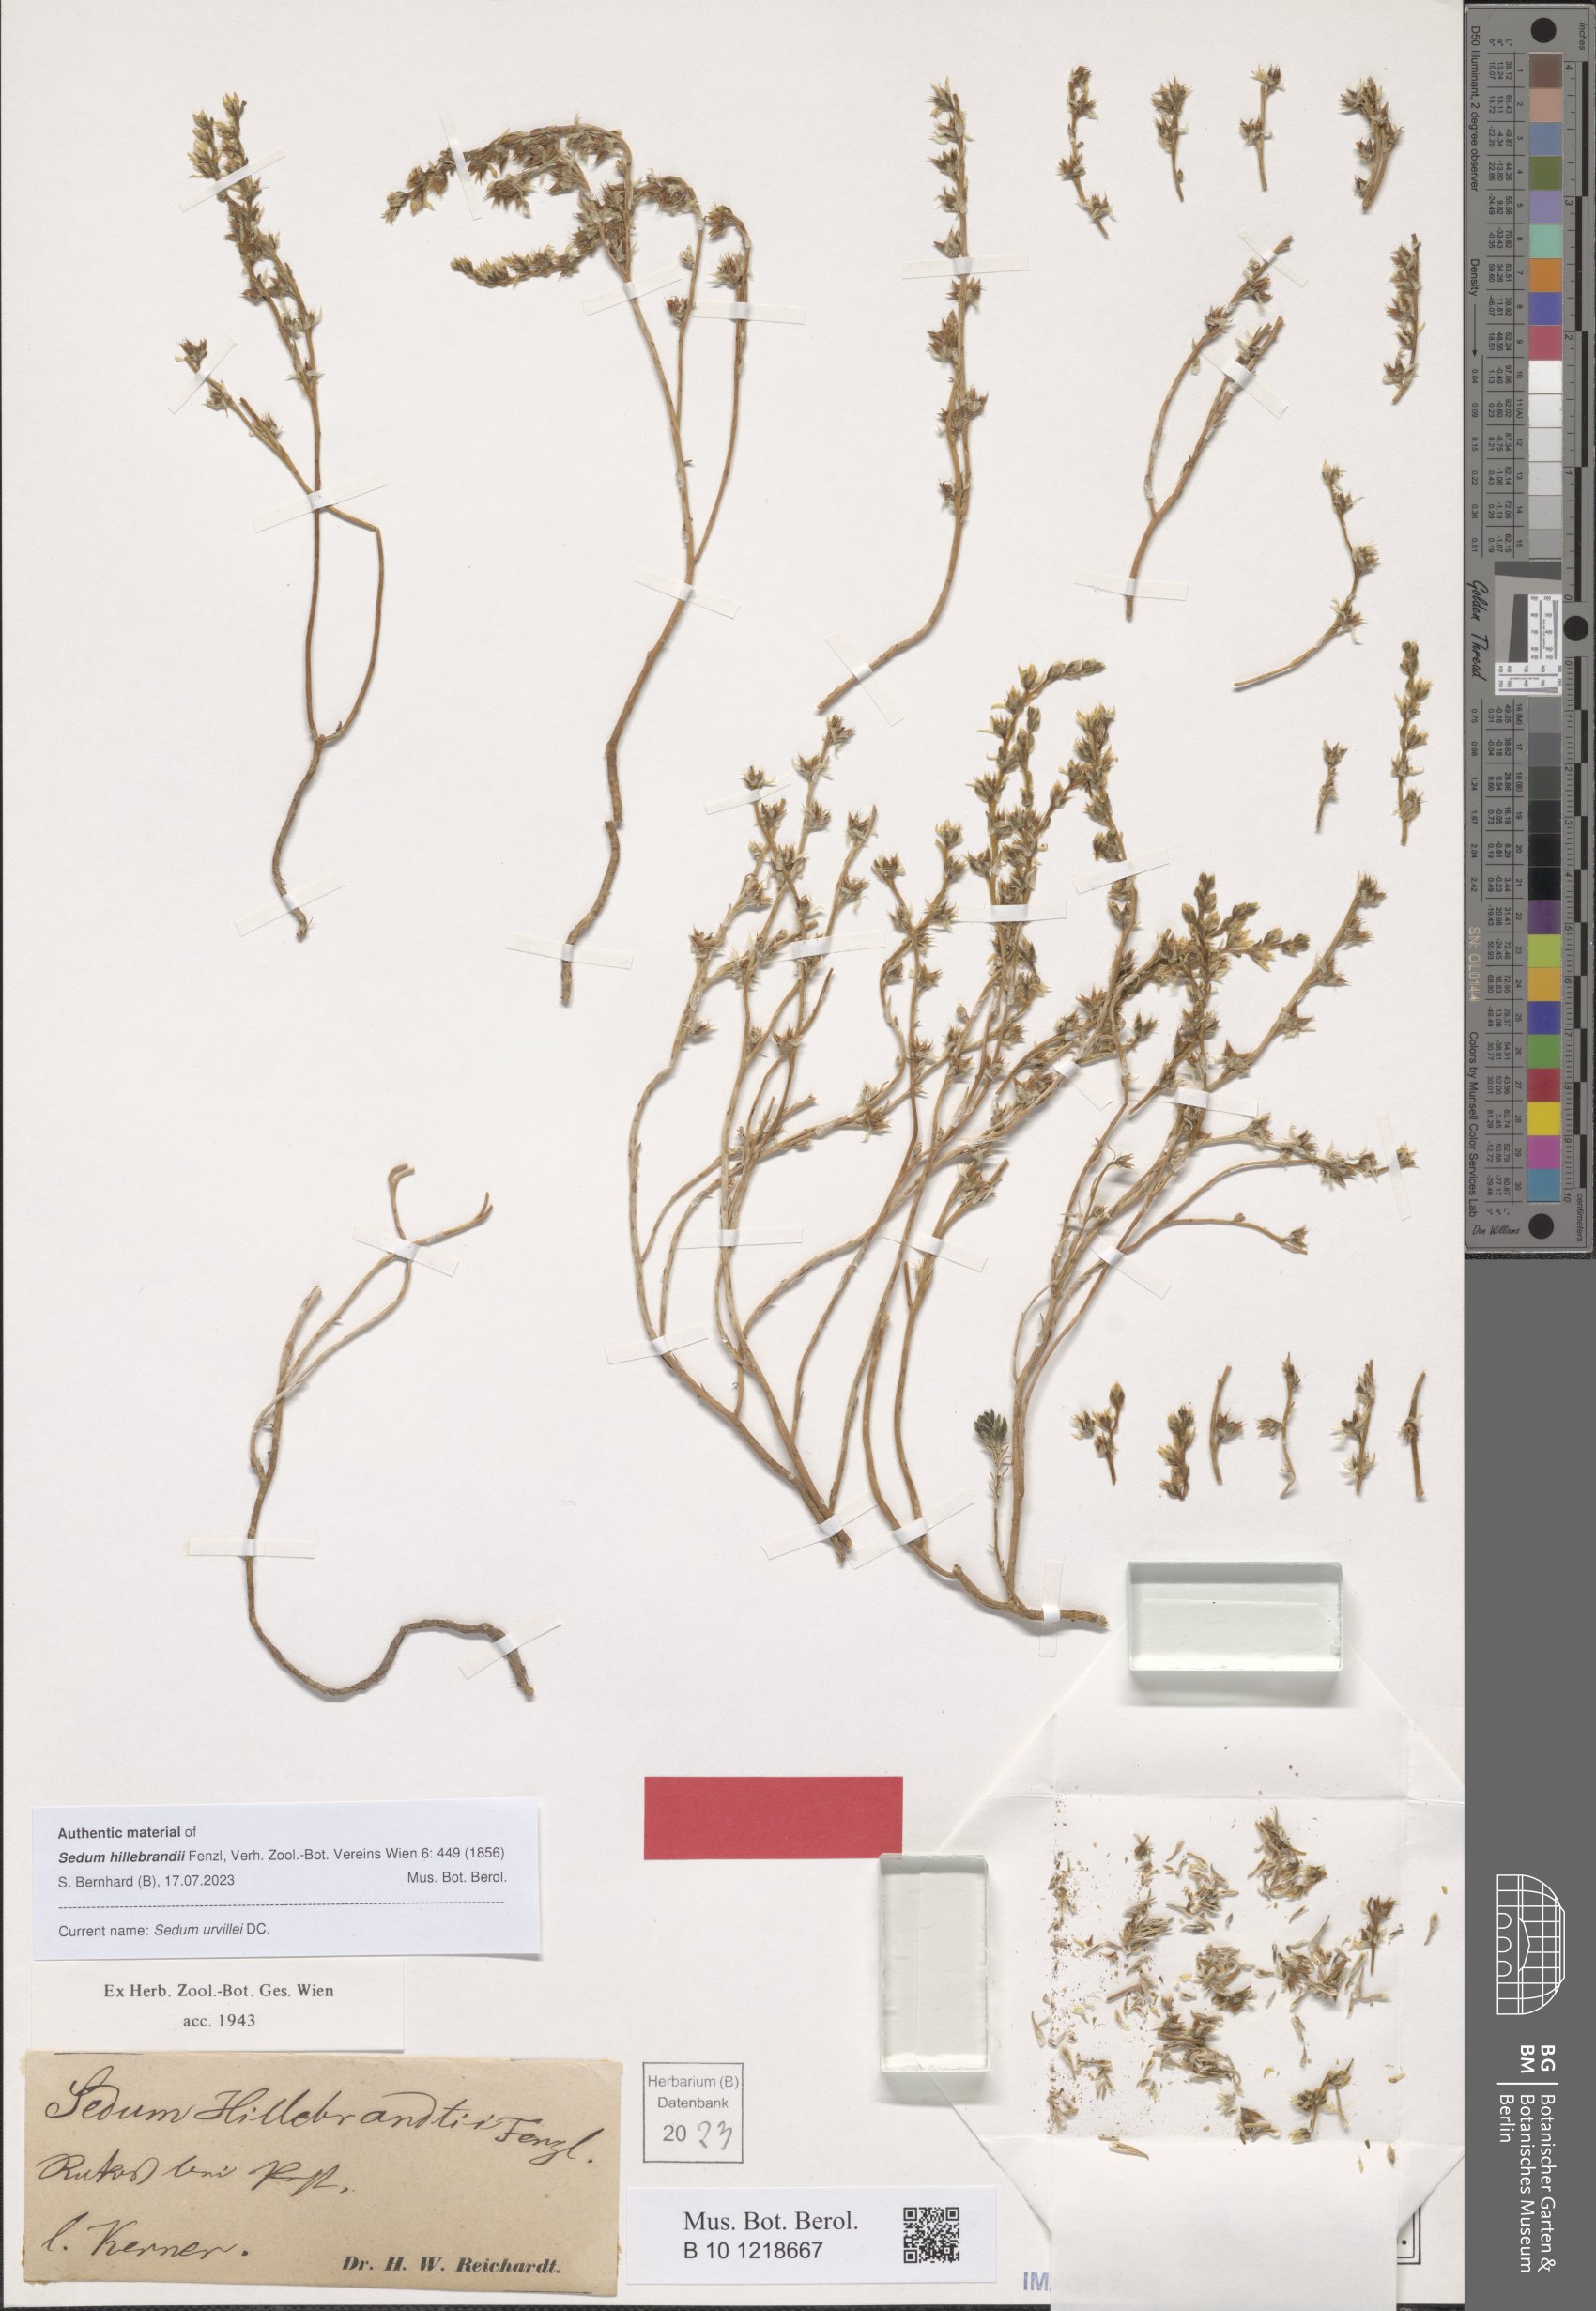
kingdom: Plantae
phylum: Tracheophyta
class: Magnoliopsida
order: Saxifragales
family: Crassulaceae
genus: Sedum
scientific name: Sedum urvillei
